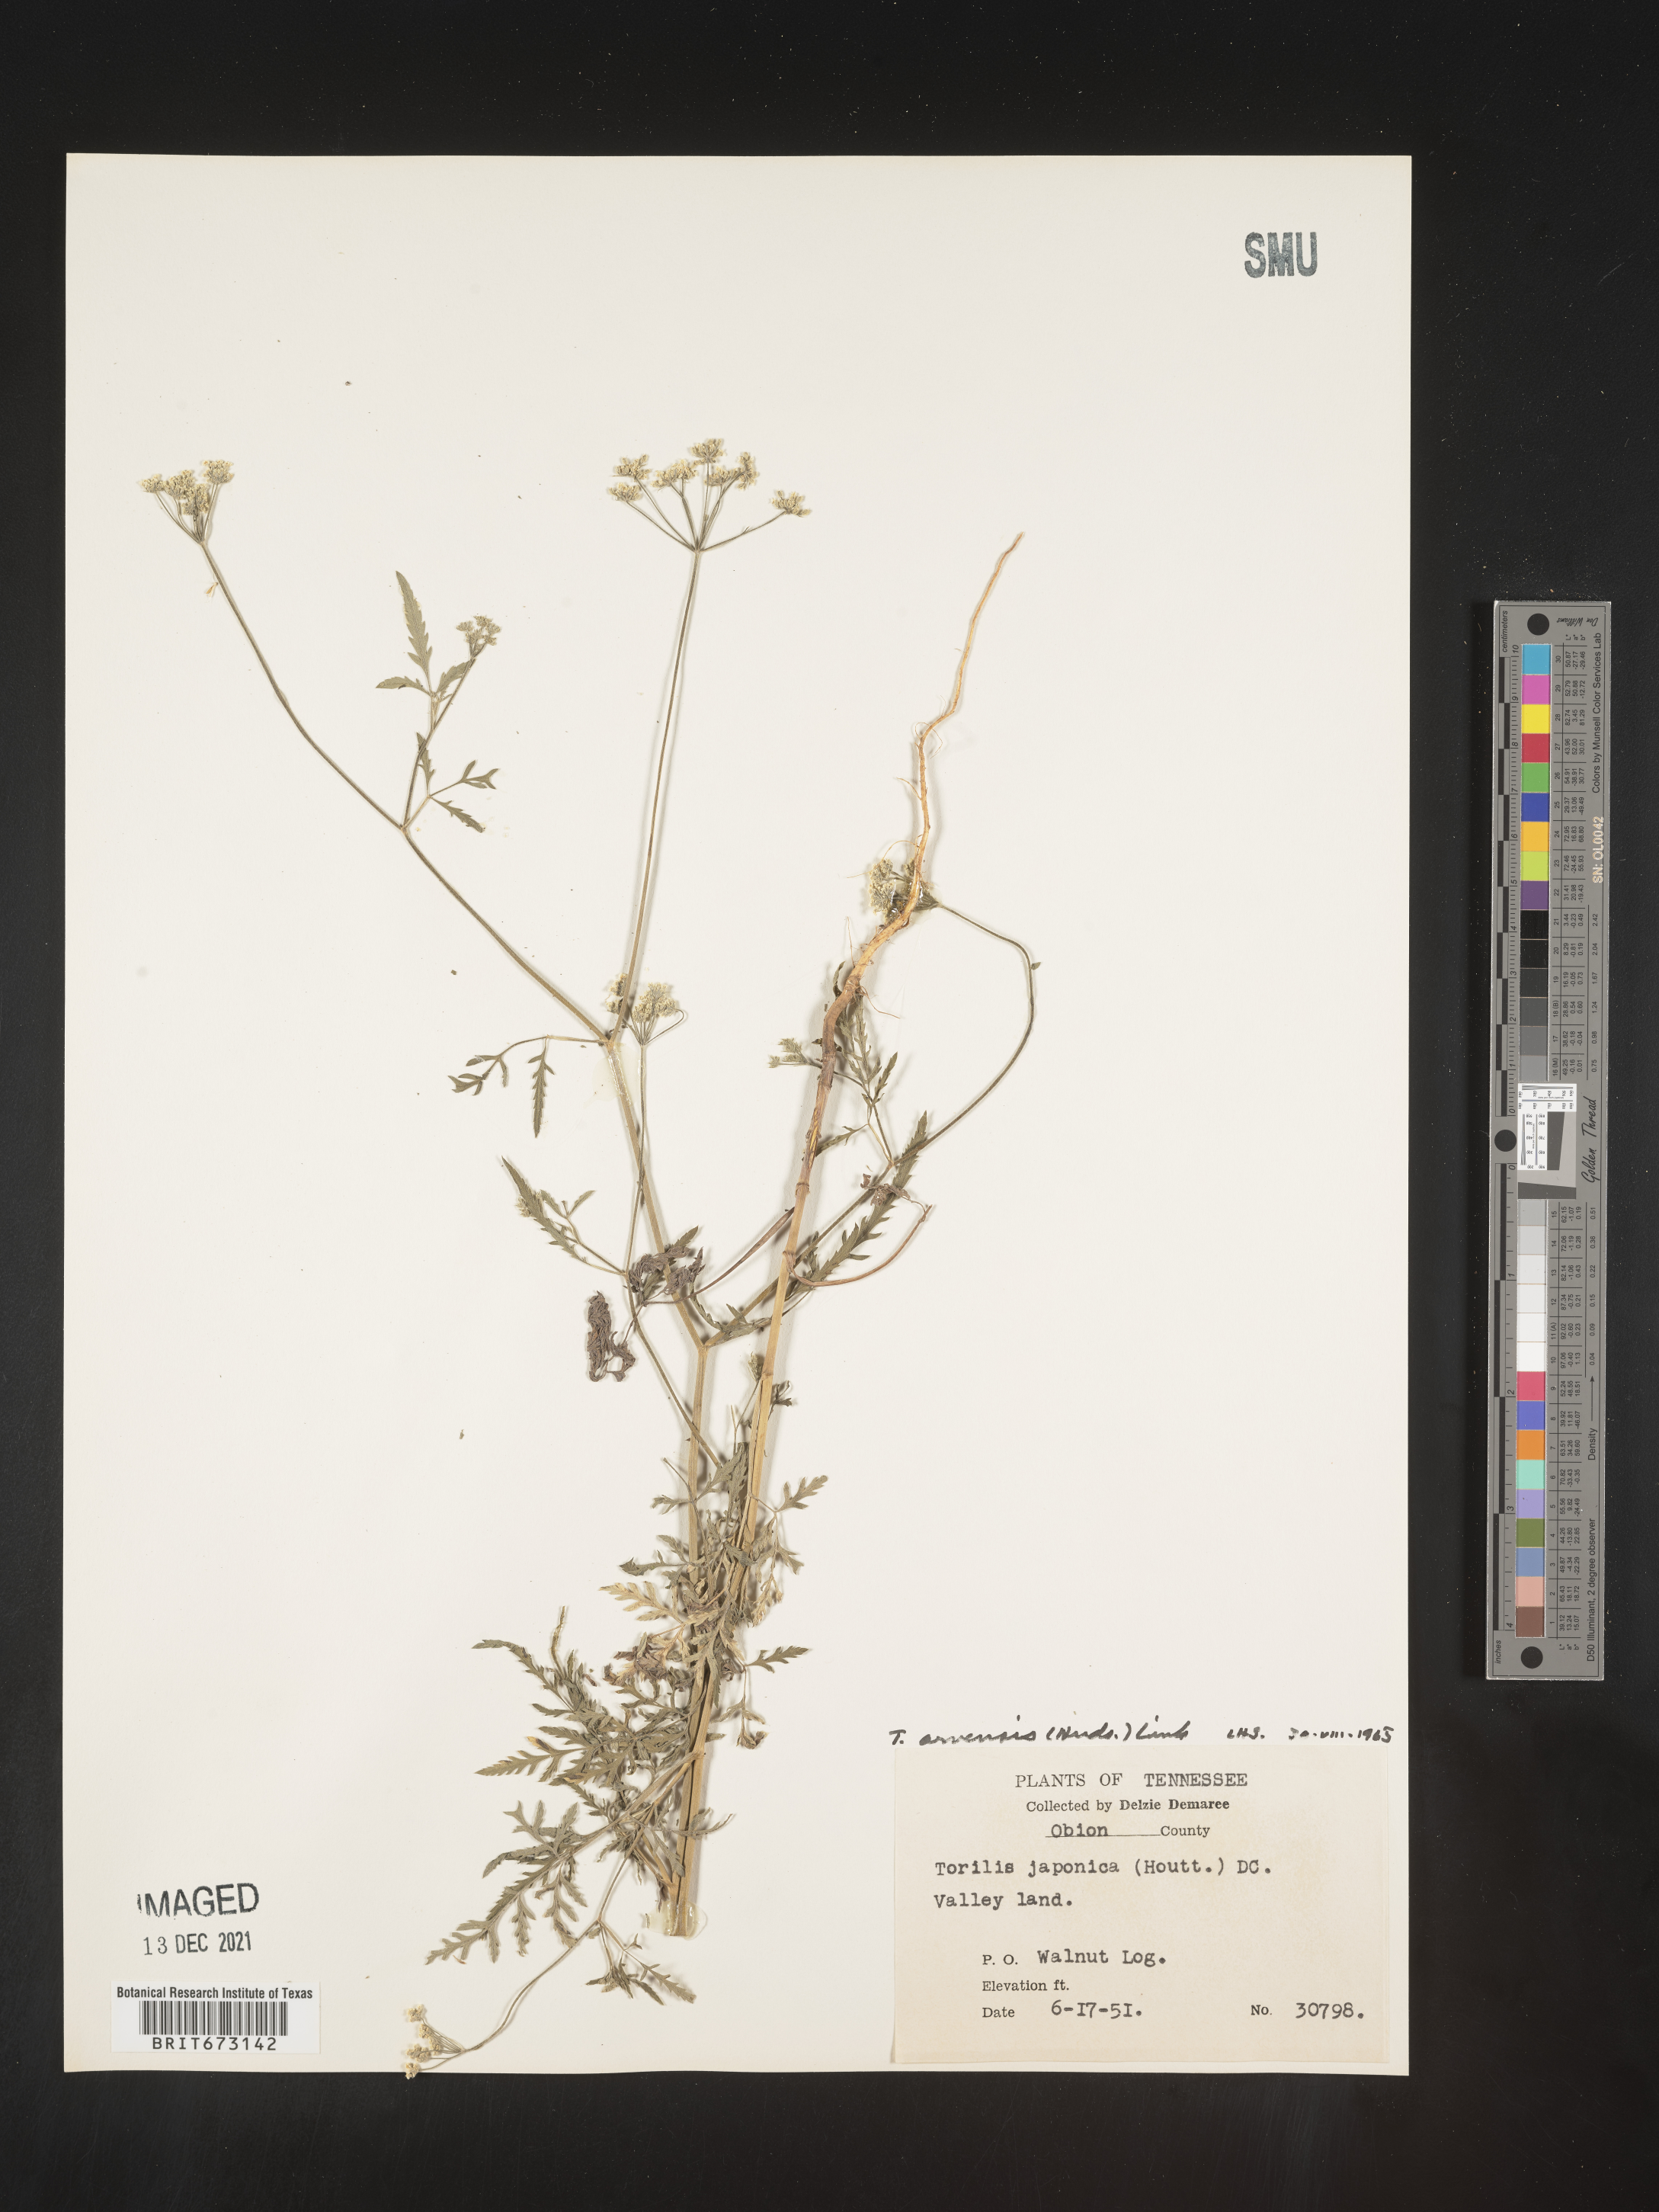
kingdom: Plantae
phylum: Tracheophyta
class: Magnoliopsida
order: Apiales
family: Apiaceae
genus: Torilis
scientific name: Torilis arvensis
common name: Spreading hedge-parsley
